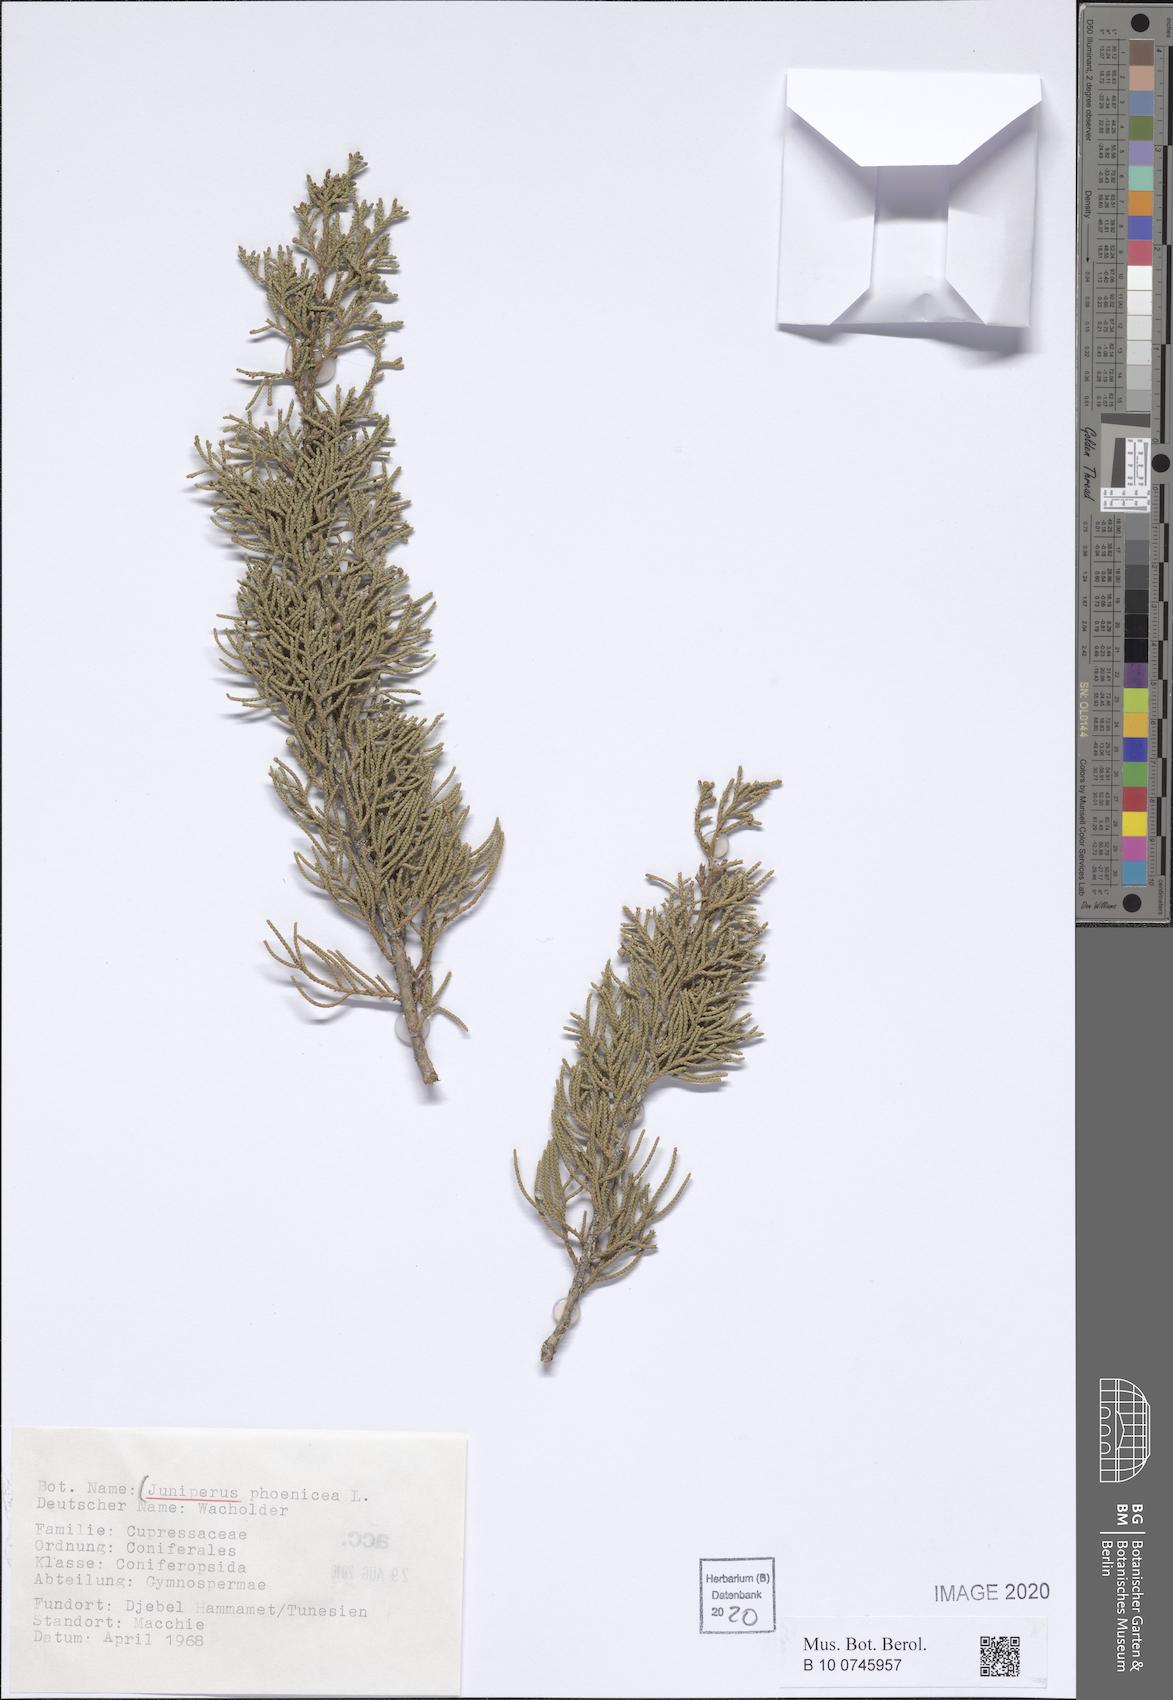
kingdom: Plantae
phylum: Tracheophyta
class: Pinopsida
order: Pinales
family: Cupressaceae
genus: Juniperus
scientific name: Juniperus phoenicea
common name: Phoenician juniper
